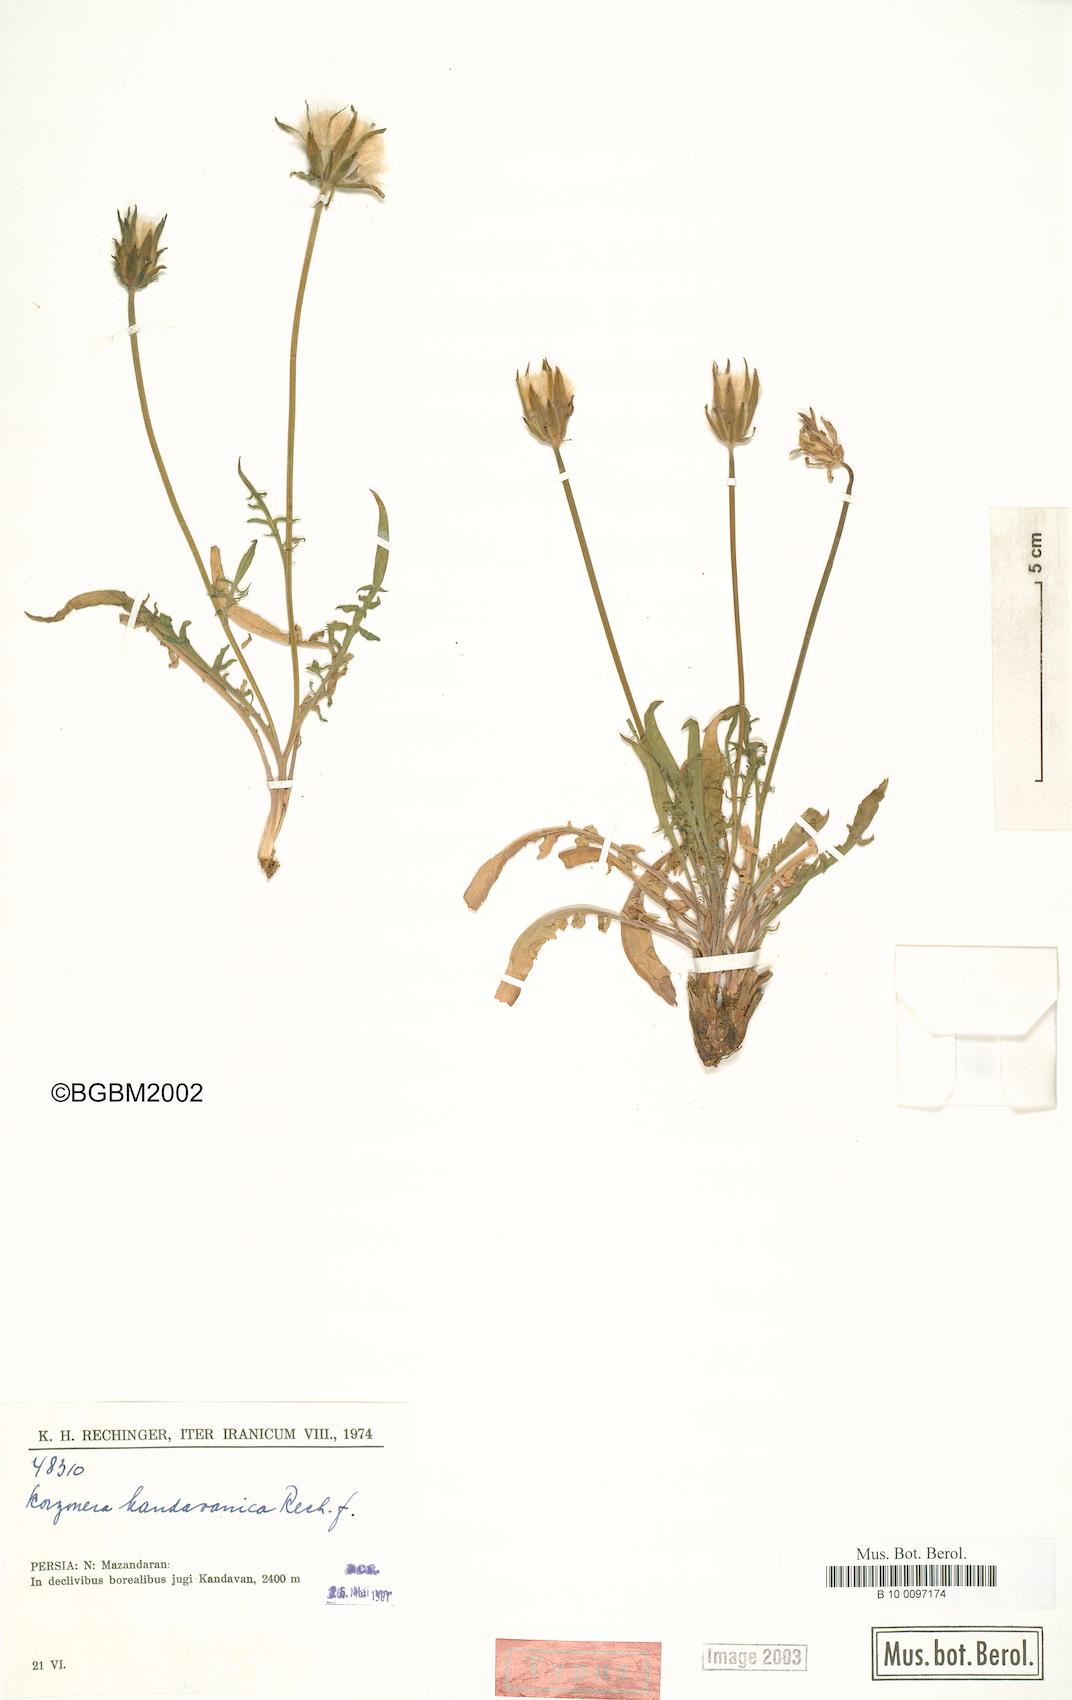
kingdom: Plantae
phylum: Tracheophyta
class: Magnoliopsida
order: Asterales
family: Asteraceae
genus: Scorzonera
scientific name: Scorzonera kandavanica
